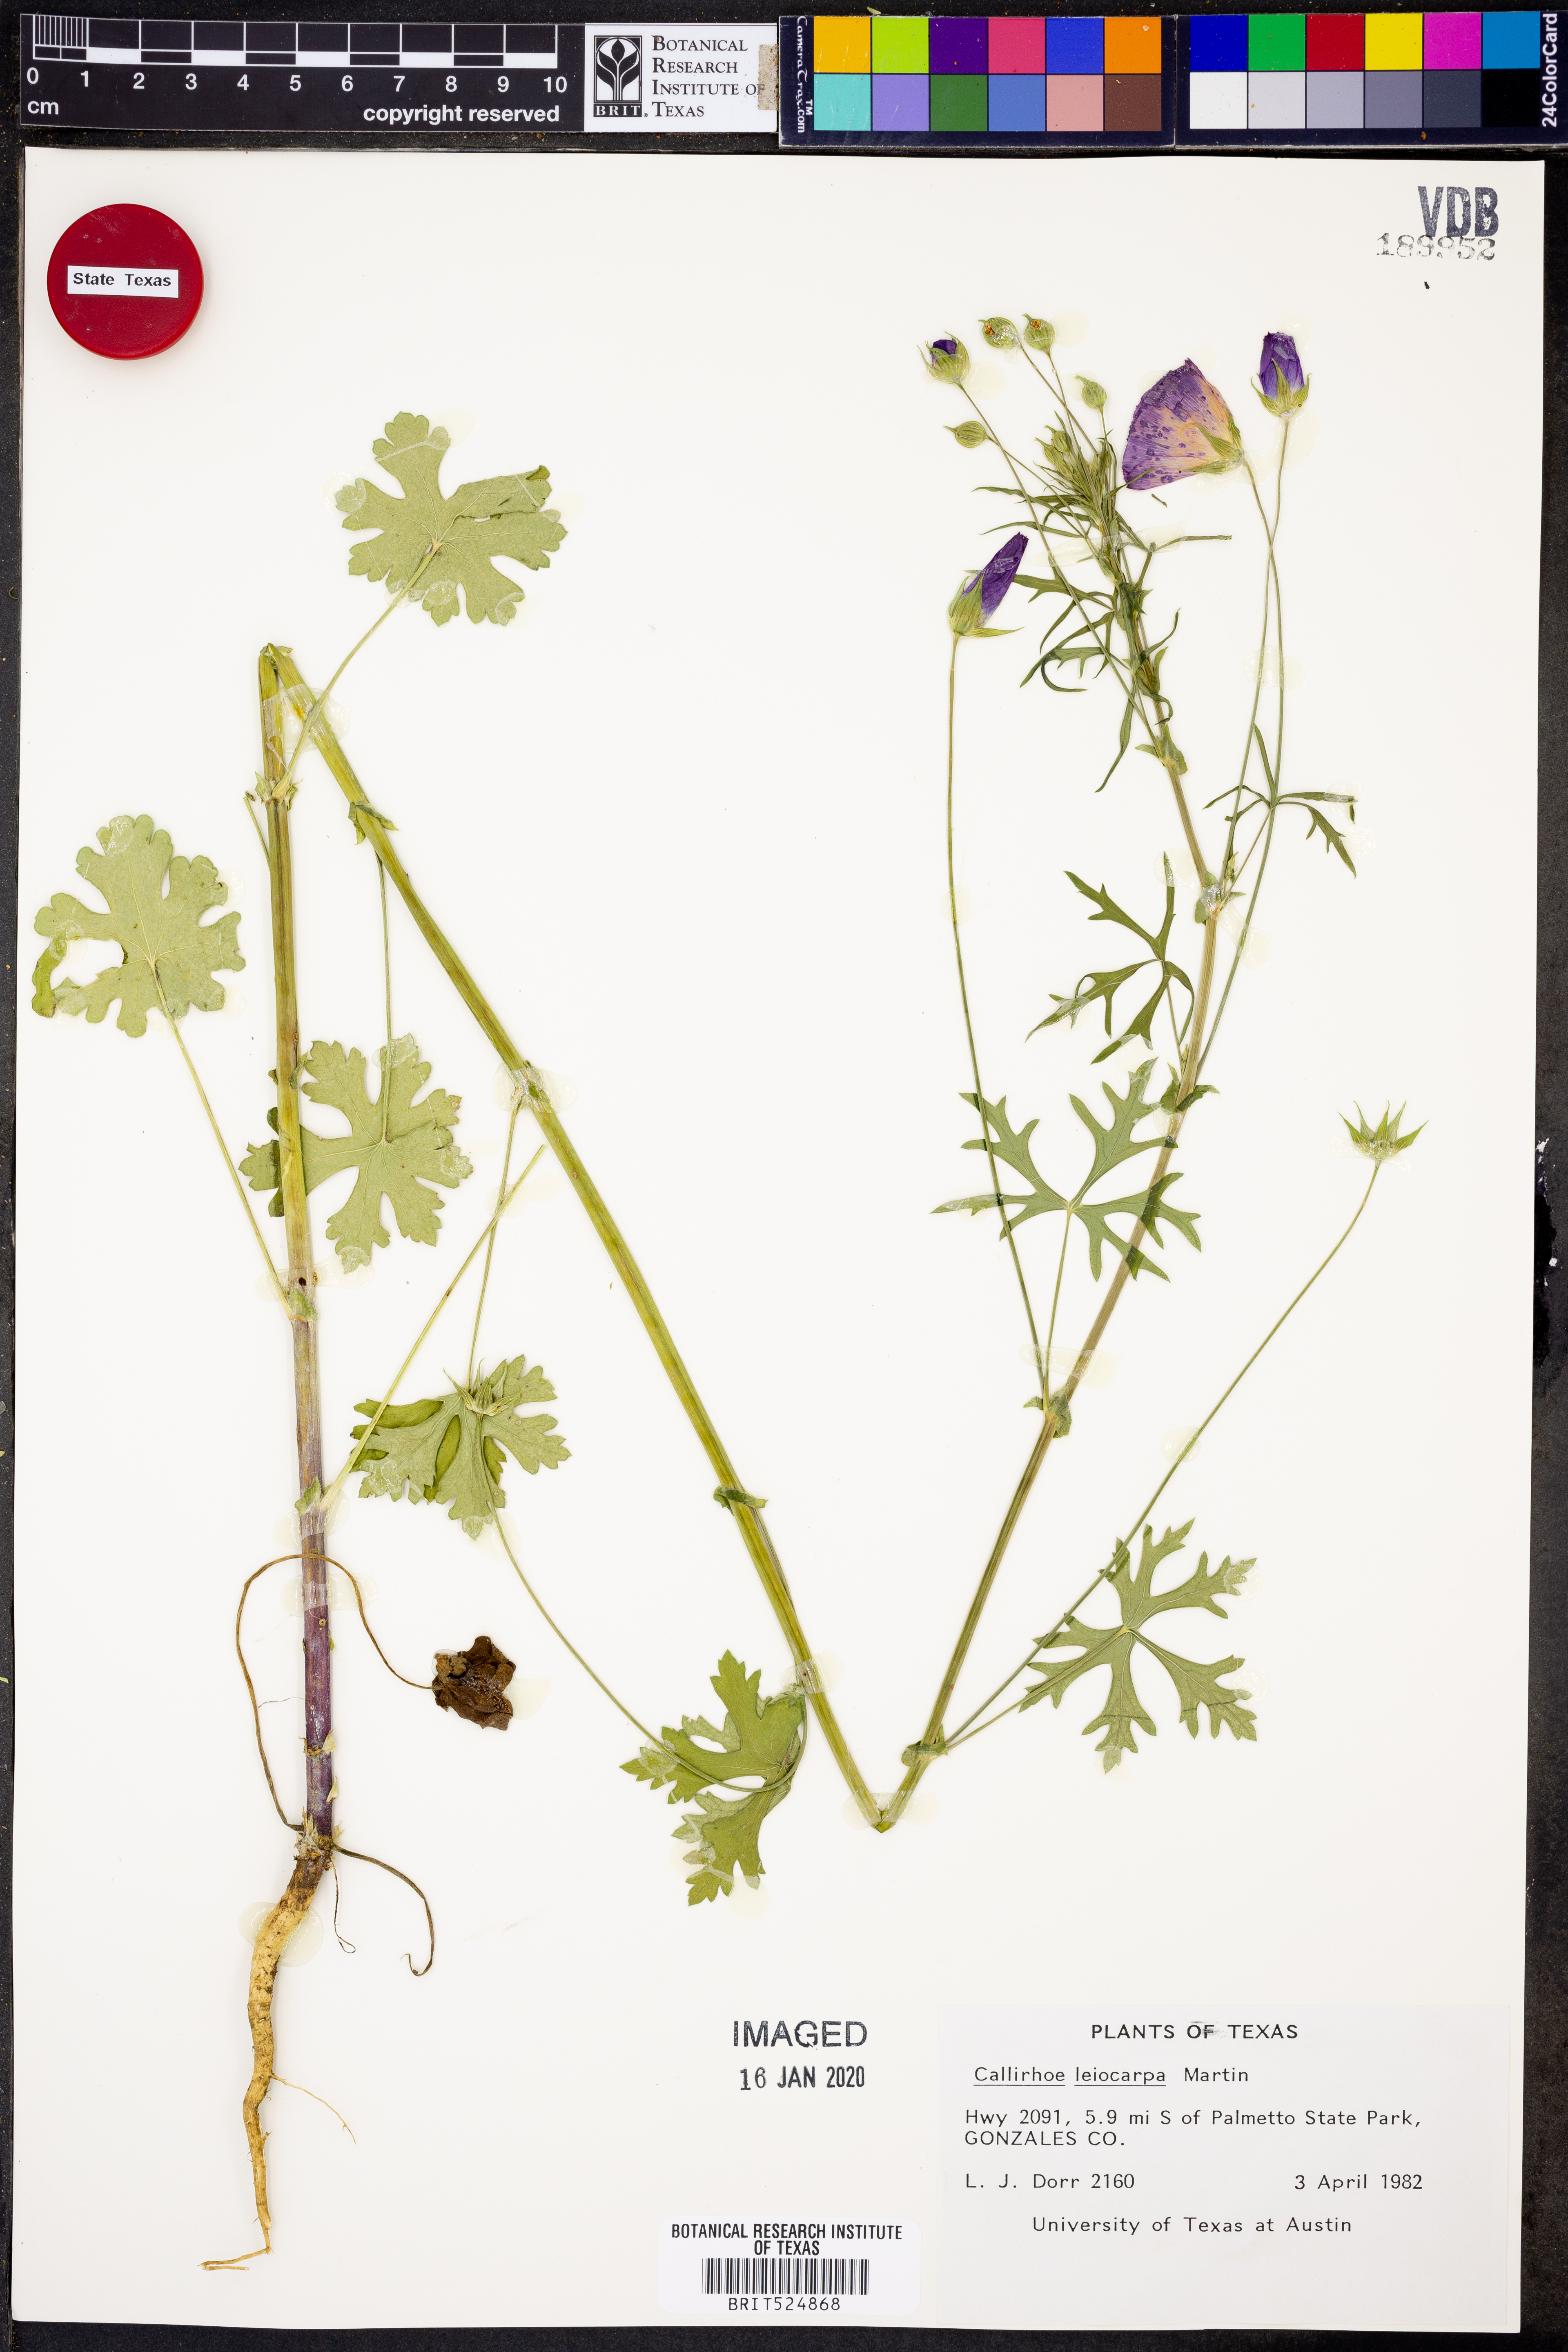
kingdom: Plantae
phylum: Tracheophyta
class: Magnoliopsida
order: Malvales
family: Malvaceae
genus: Callirhoe
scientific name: Callirhoe leiocarpa
